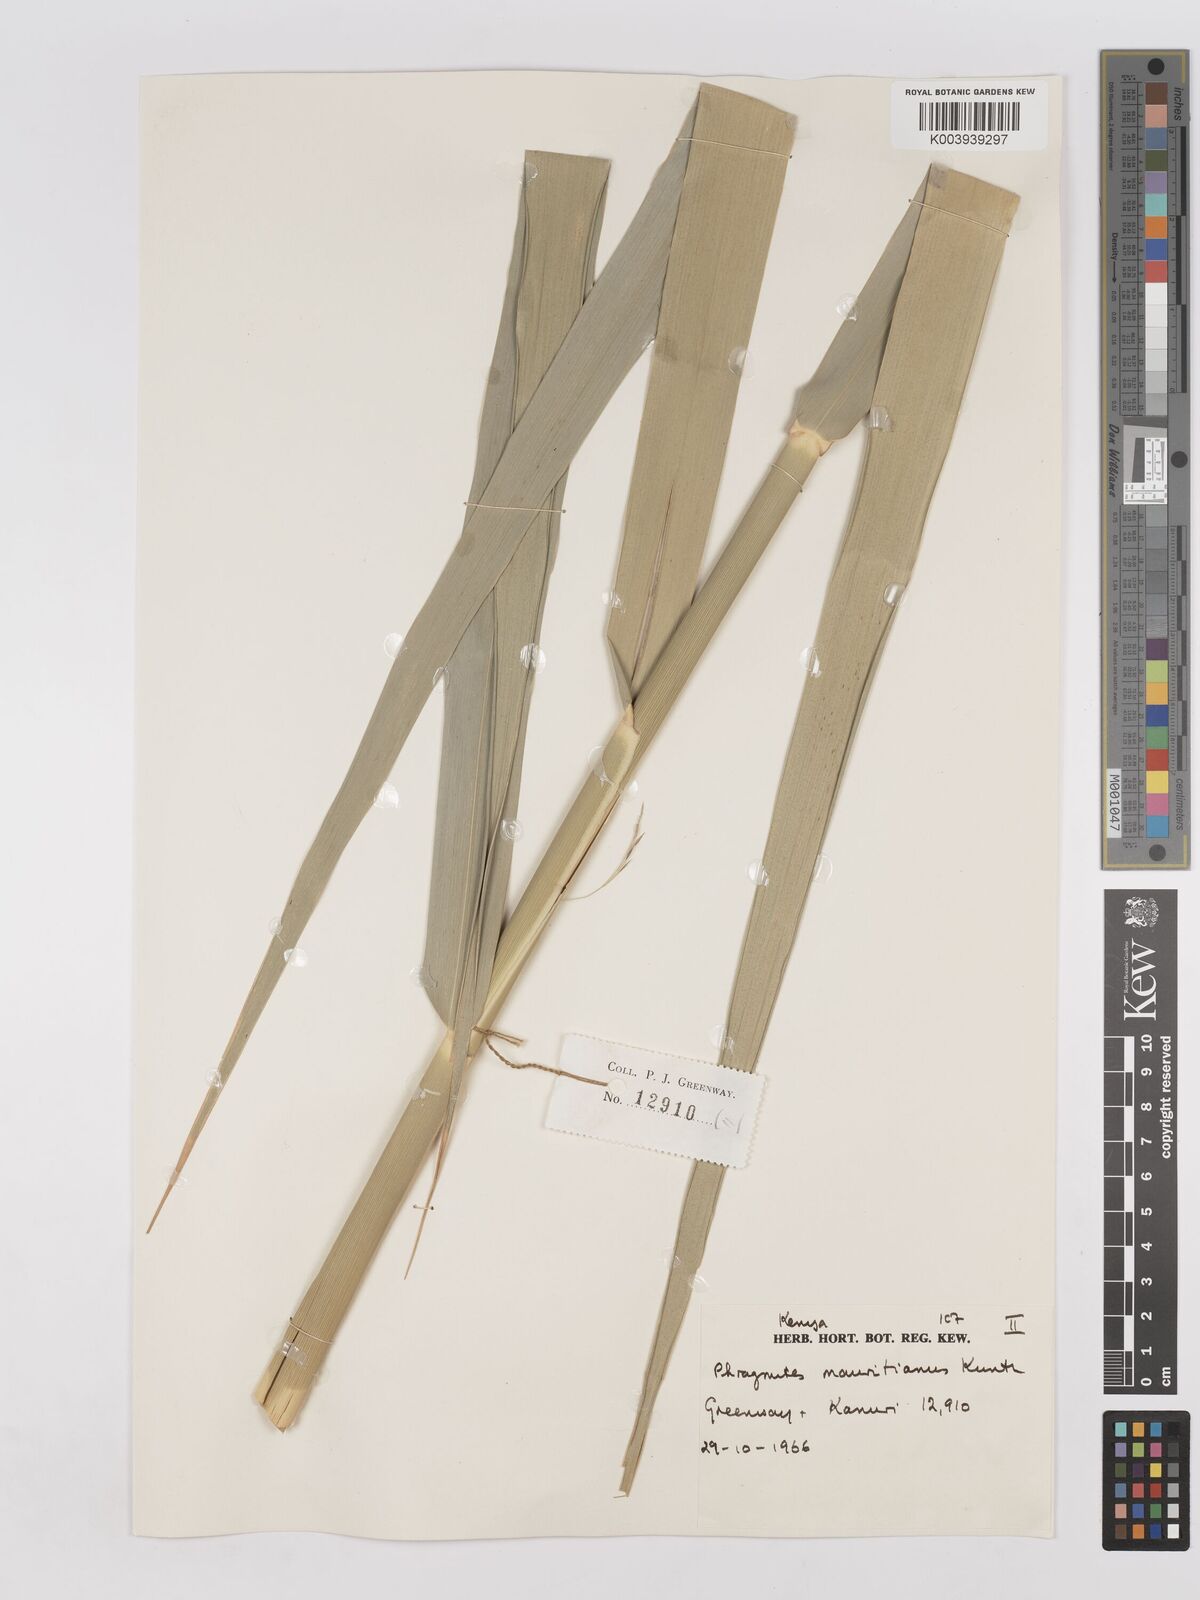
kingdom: Plantae
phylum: Tracheophyta
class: Liliopsida
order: Poales
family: Poaceae
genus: Phragmites
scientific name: Phragmites mauritianus
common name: Reed grass
